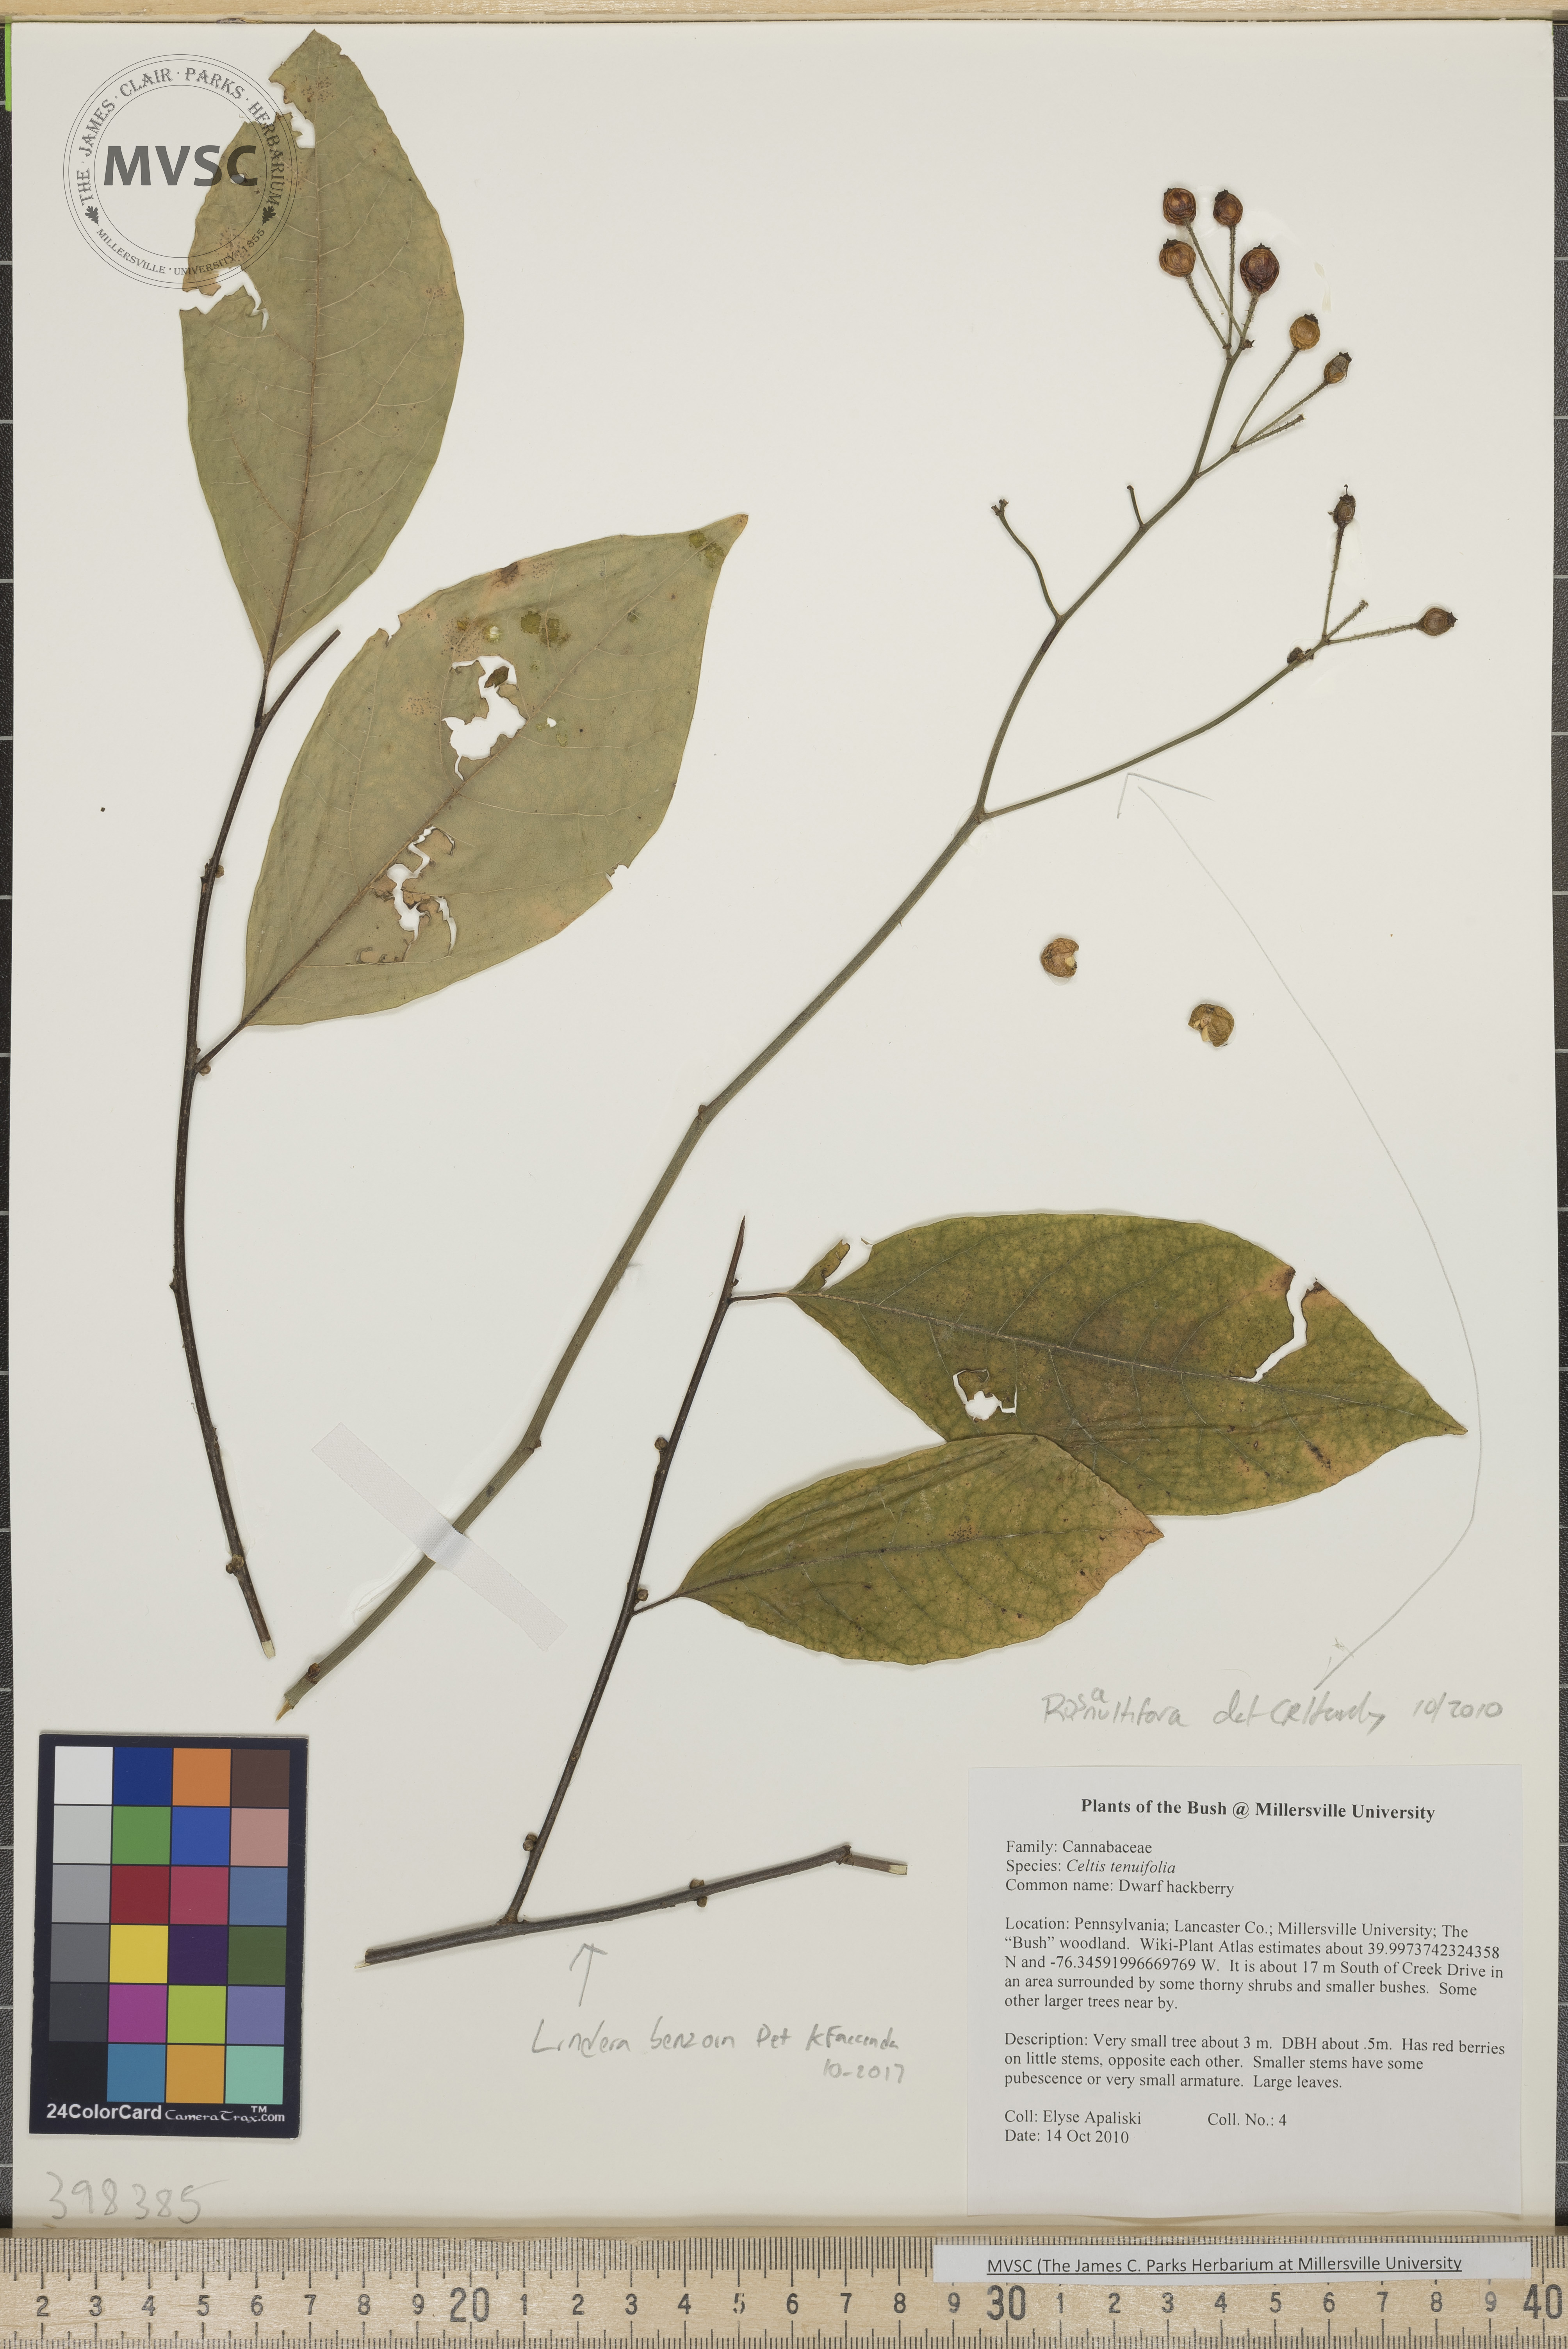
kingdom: Plantae
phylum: Tracheophyta
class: Magnoliopsida
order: Rosales
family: Rosaceae
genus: Rosa
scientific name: Rosa multiflora
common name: Multiflora rose
